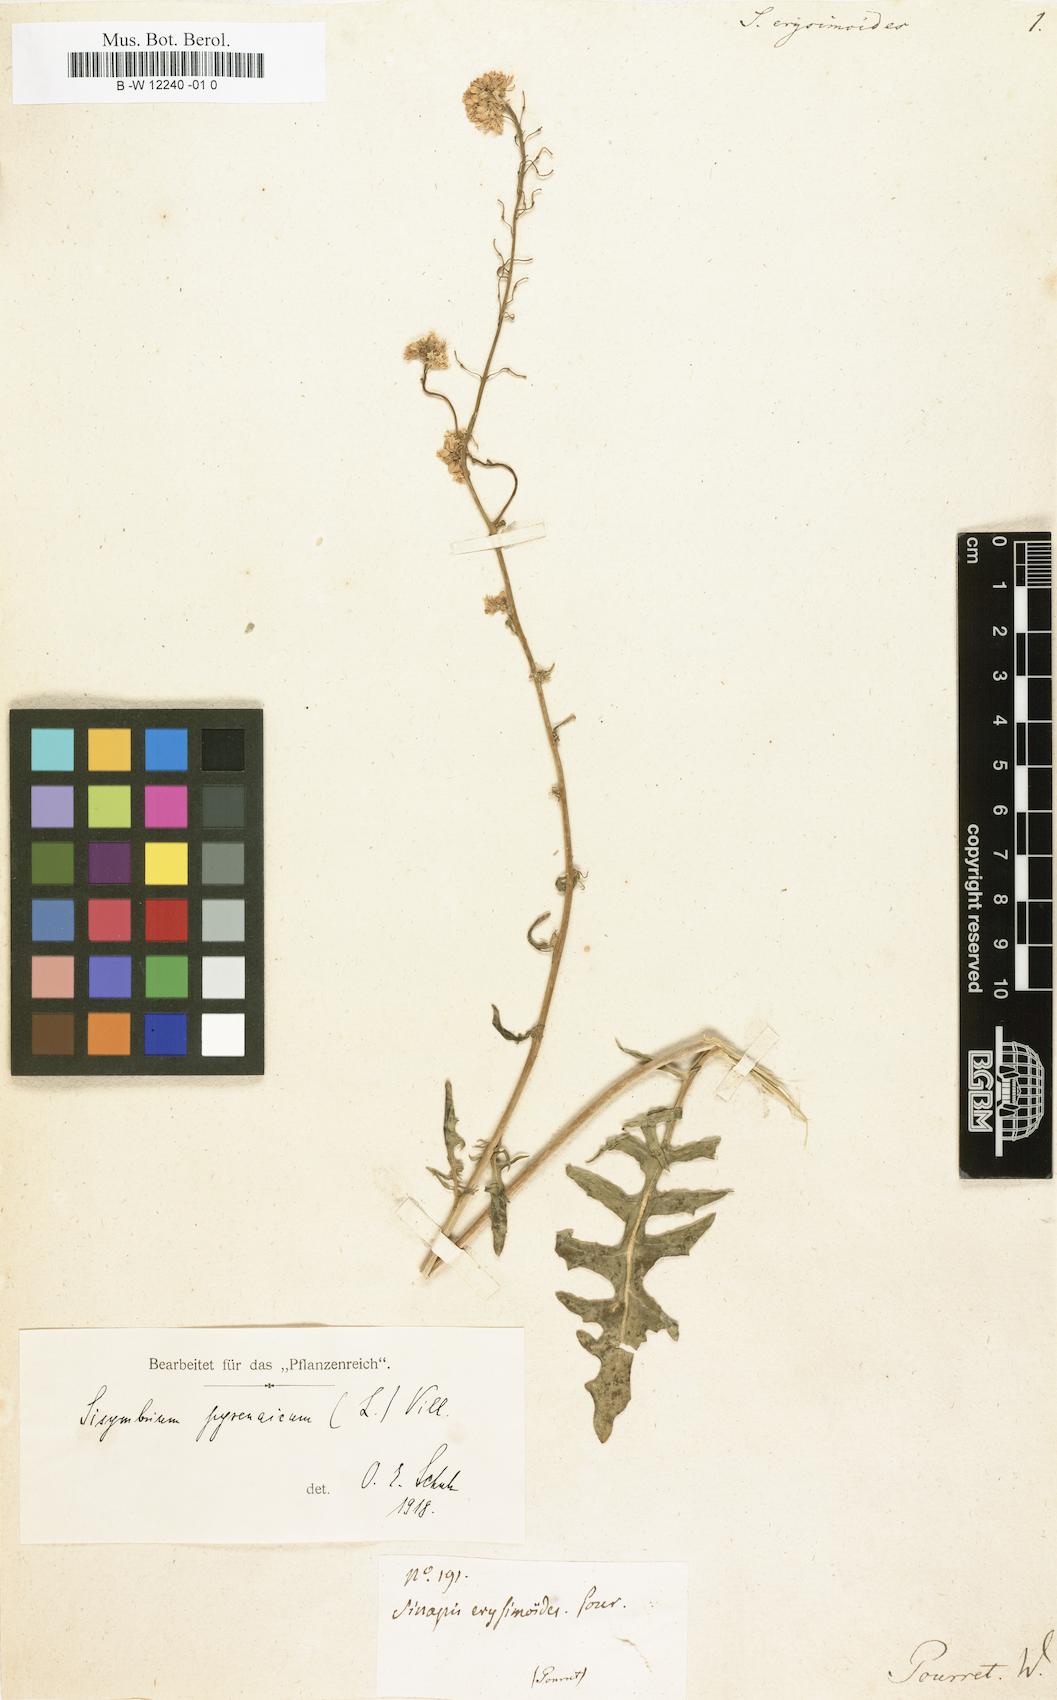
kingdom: Plantae
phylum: Tracheophyta
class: Magnoliopsida
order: Brassicales
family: Brassicaceae
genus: Brassica
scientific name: Brassica nigra
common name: Black mustard
